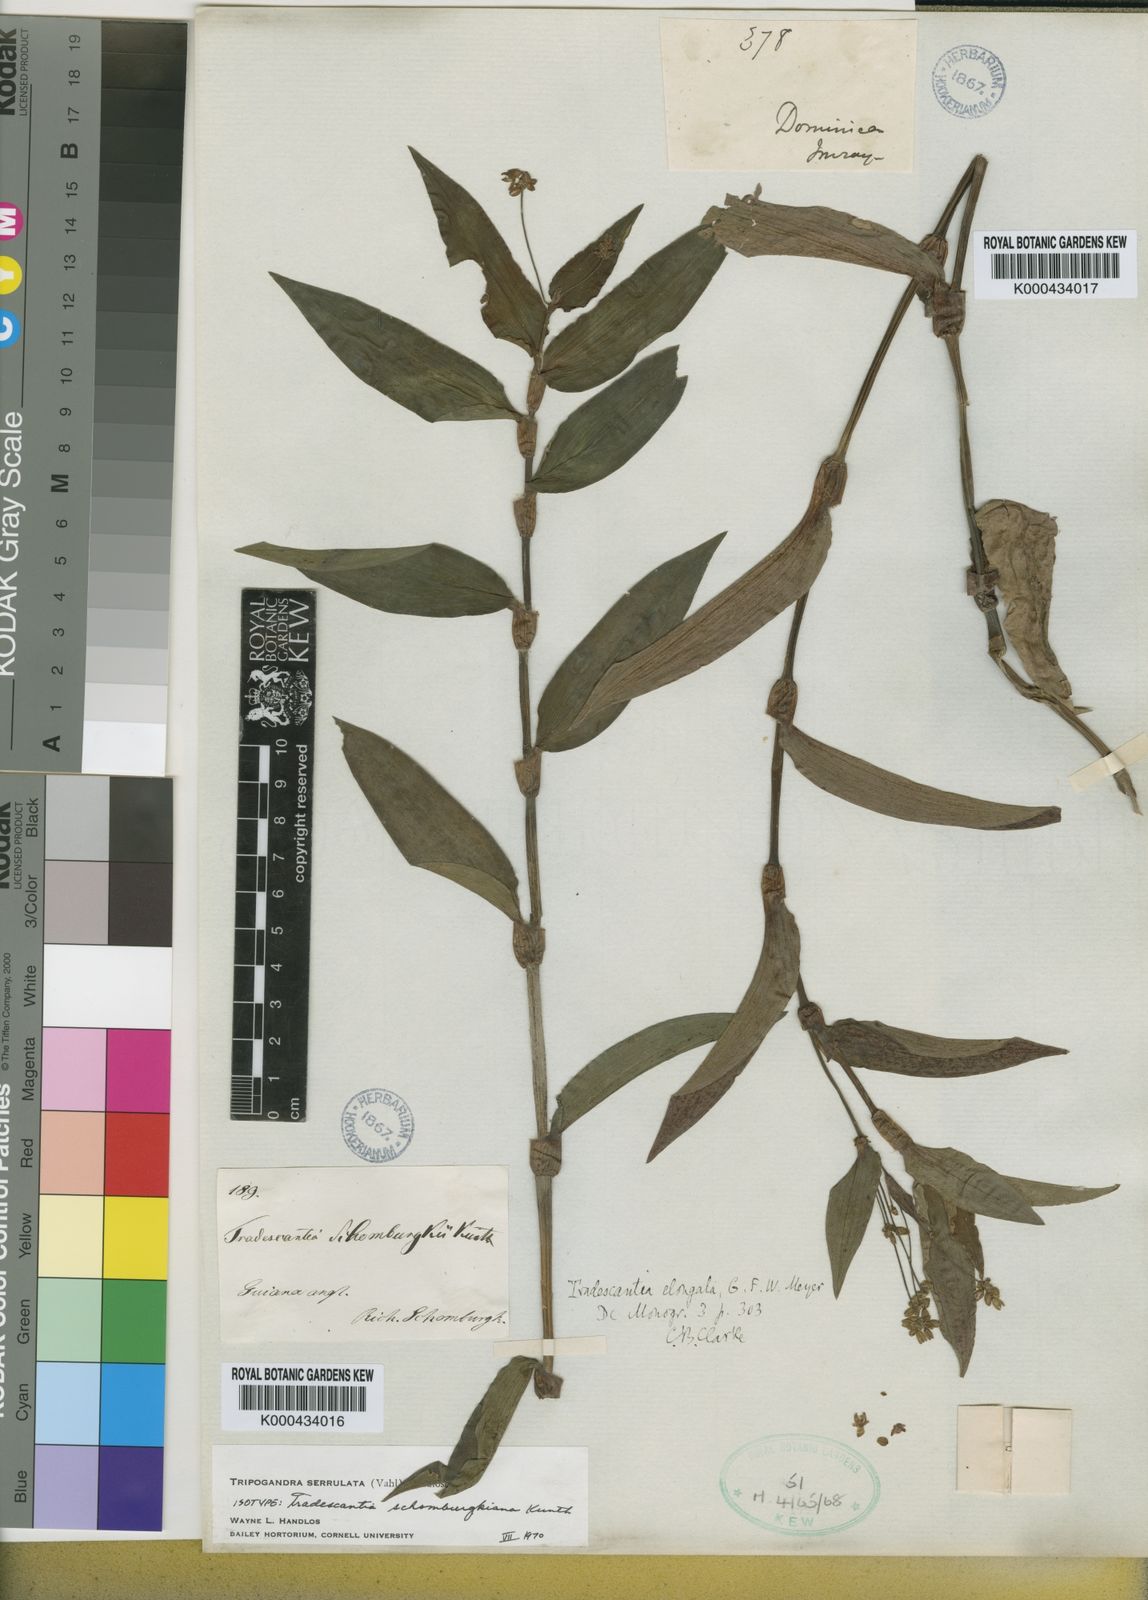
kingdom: Plantae
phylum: Tracheophyta
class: Liliopsida
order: Commelinales
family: Commelinaceae
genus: Callisia
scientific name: Callisia serrulata
